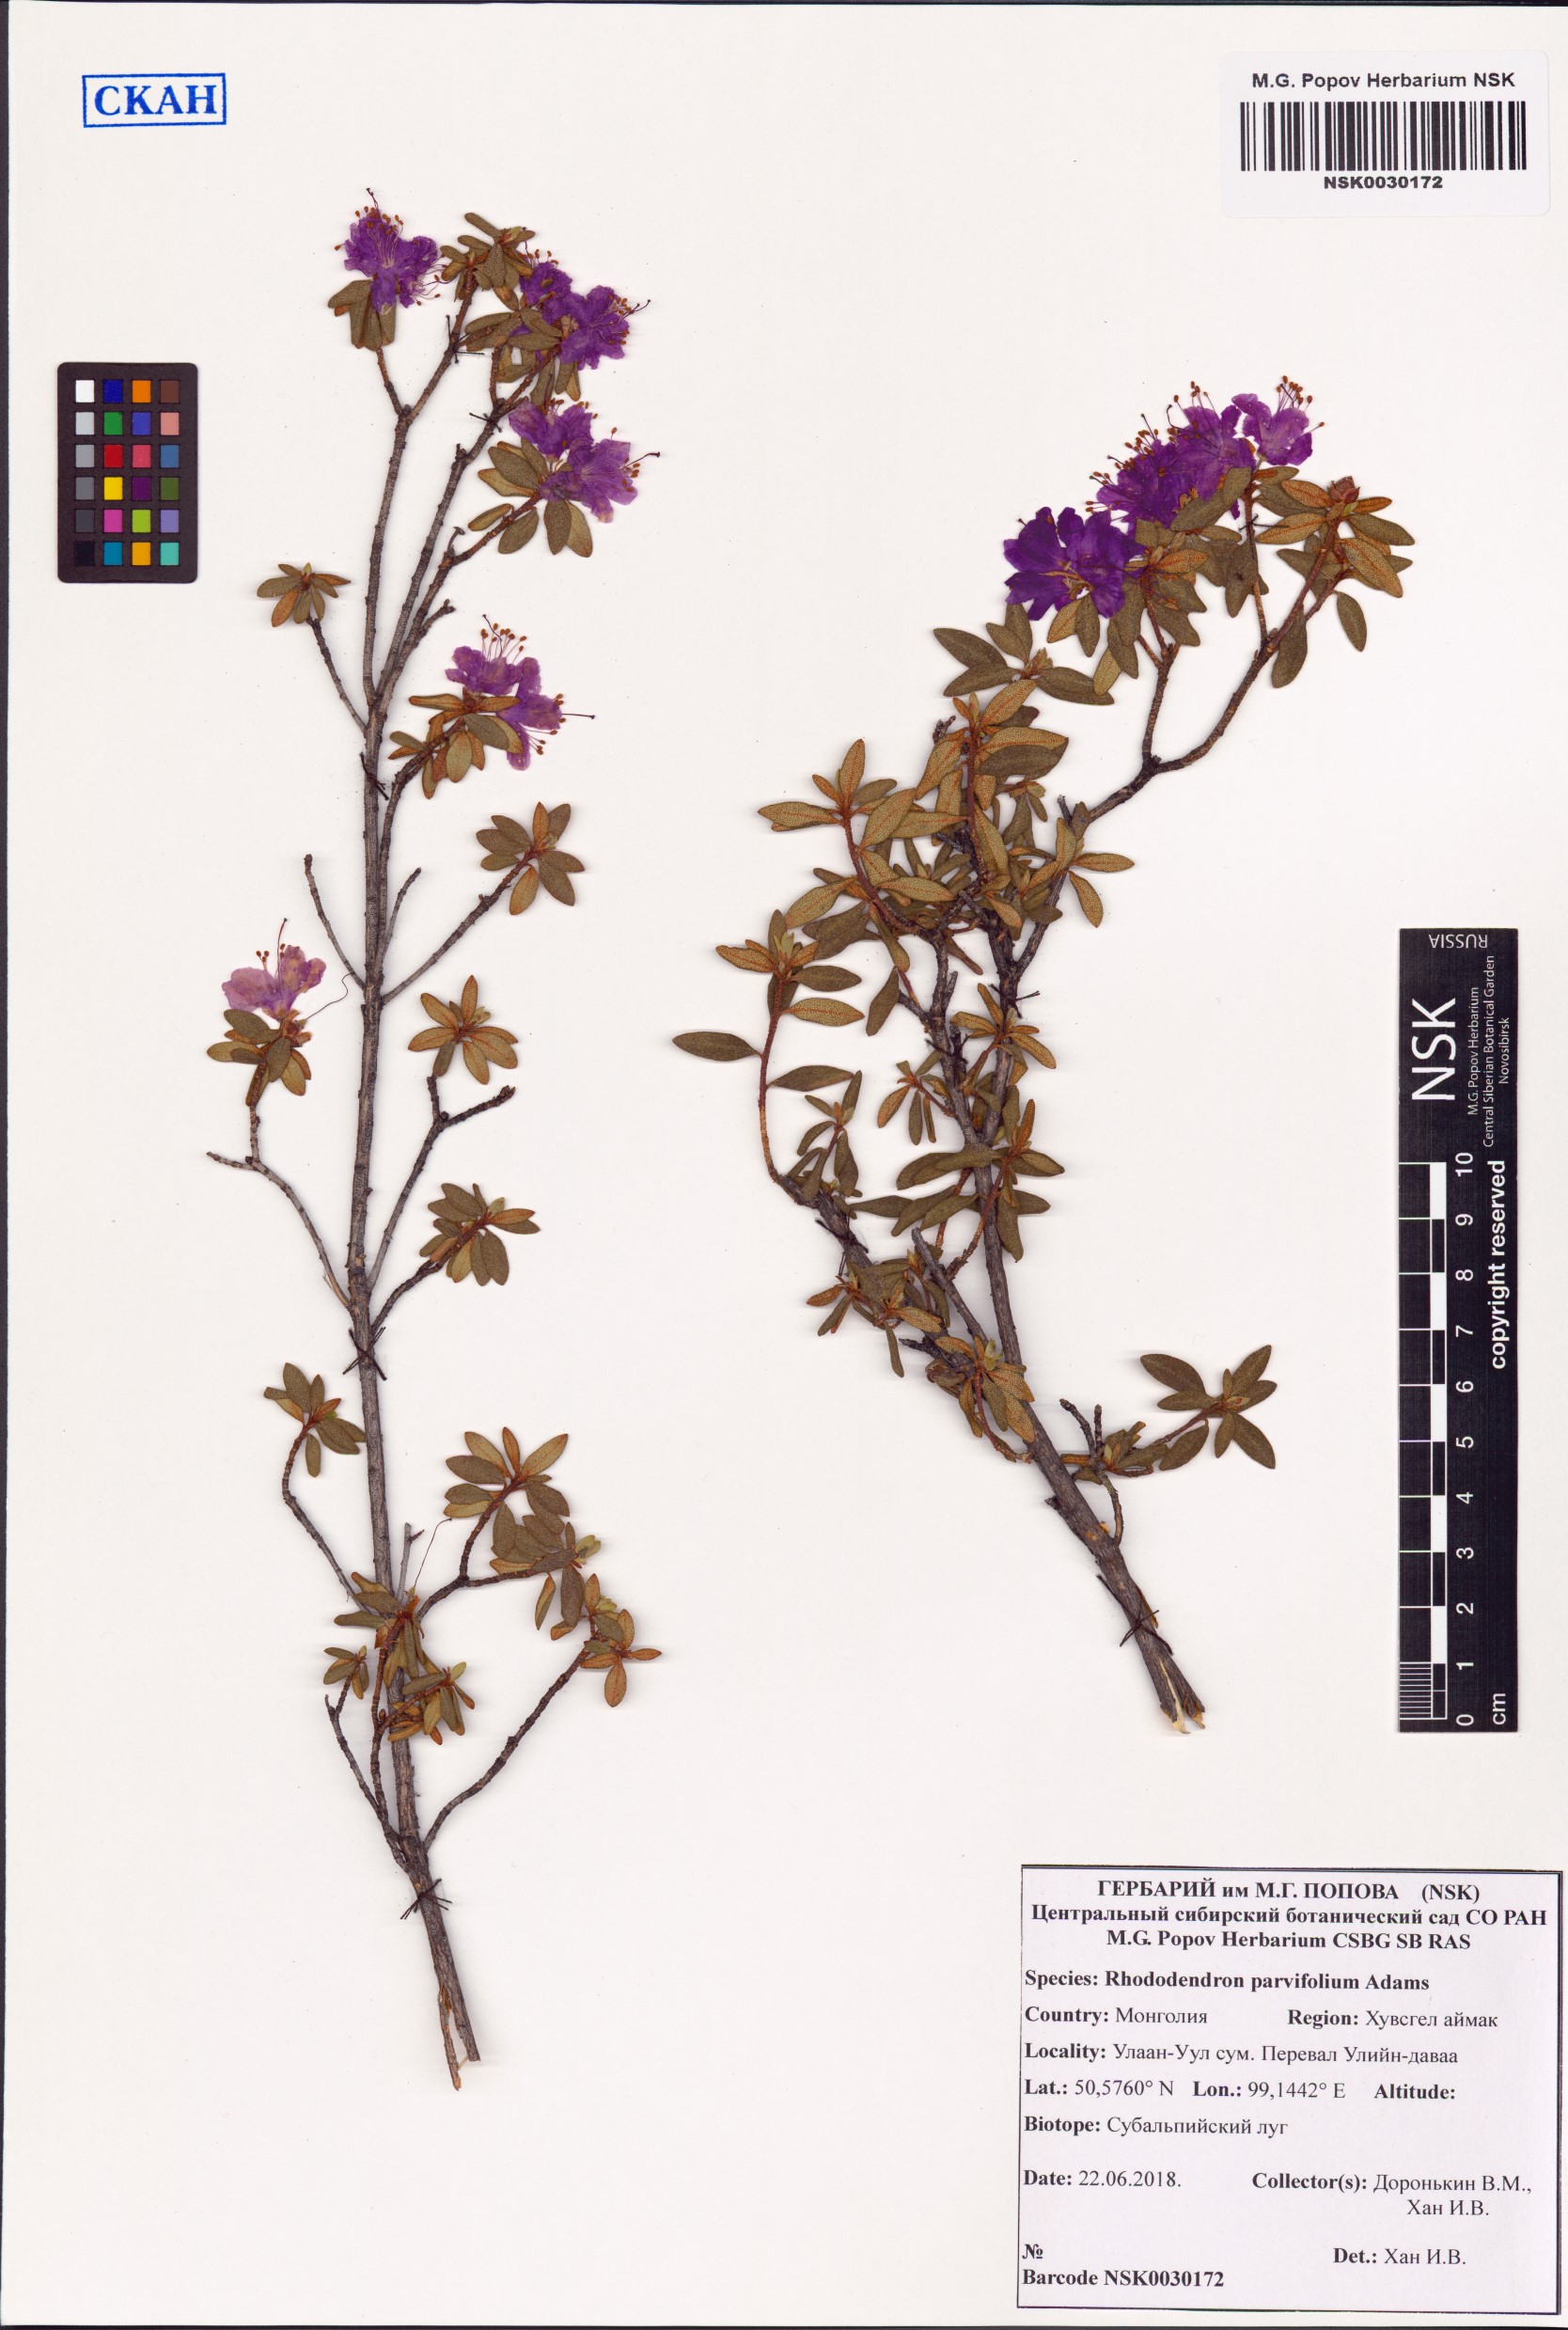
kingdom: Plantae
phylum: Tracheophyta
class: Magnoliopsida
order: Ericales
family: Ericaceae
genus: Rhododendron
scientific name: Rhododendron parvifolium
